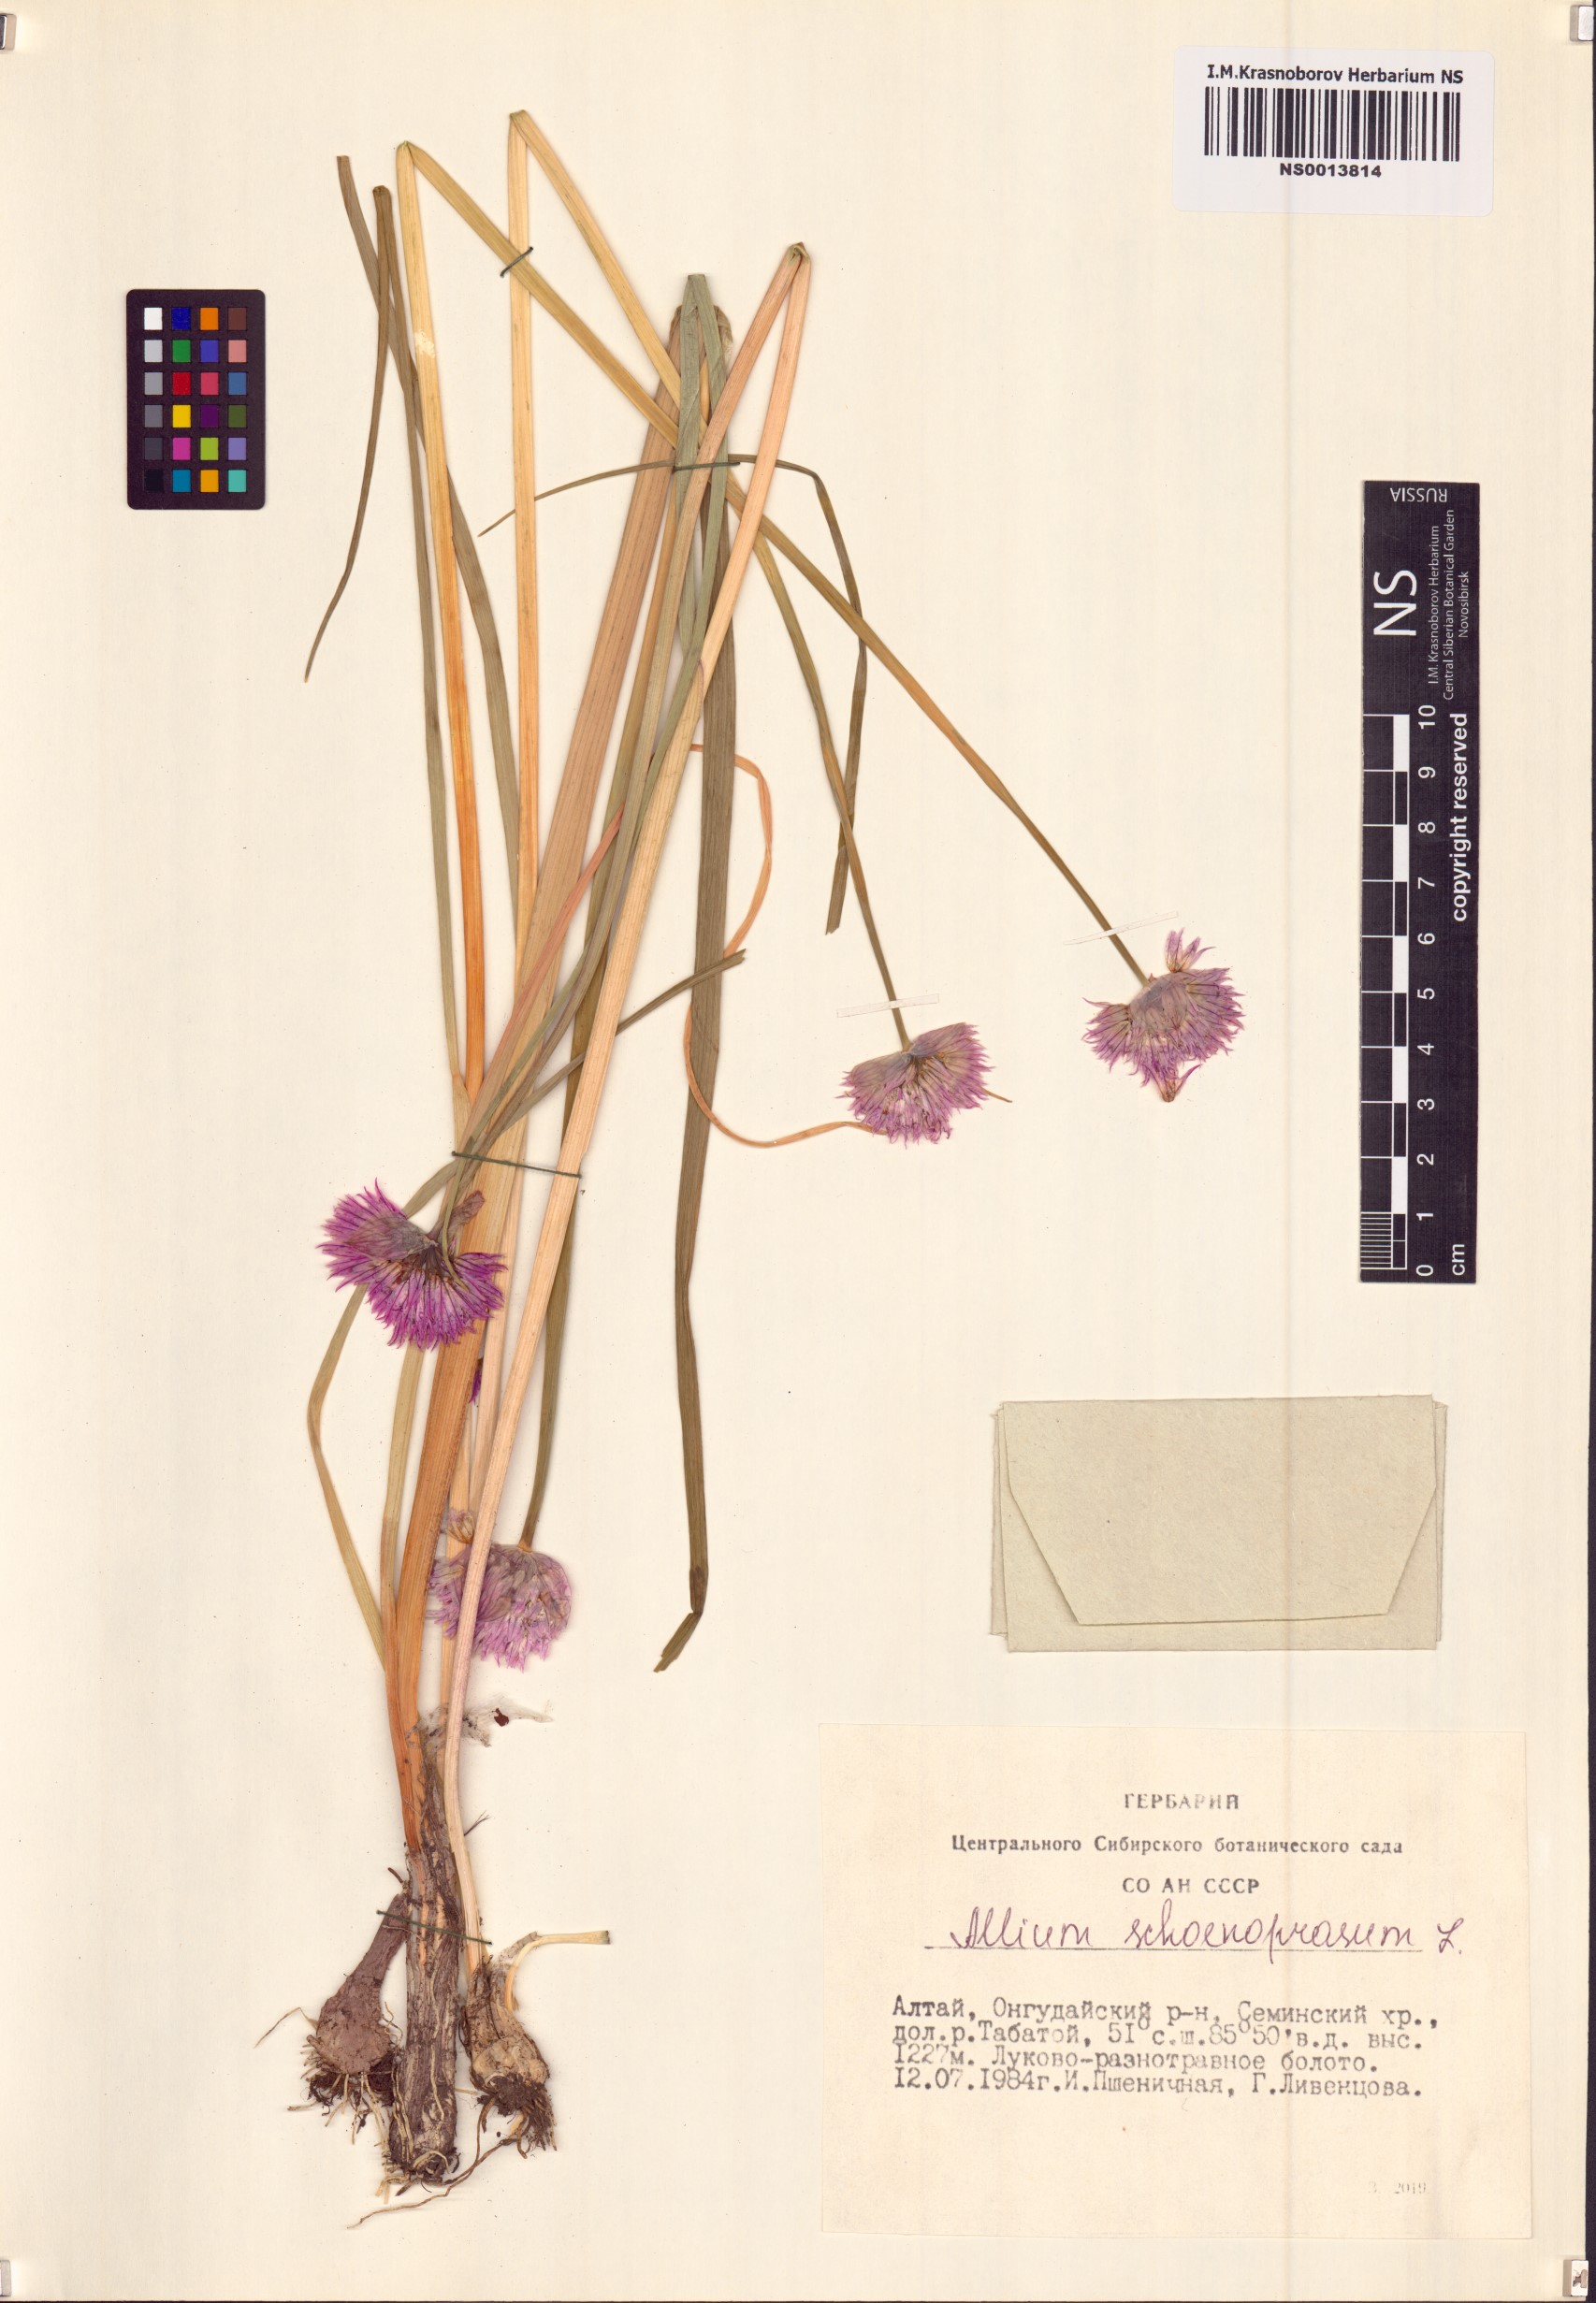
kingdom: Plantae
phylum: Tracheophyta
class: Liliopsida
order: Asparagales
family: Amaryllidaceae
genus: Allium
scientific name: Allium schoenoprasum
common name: Chives
